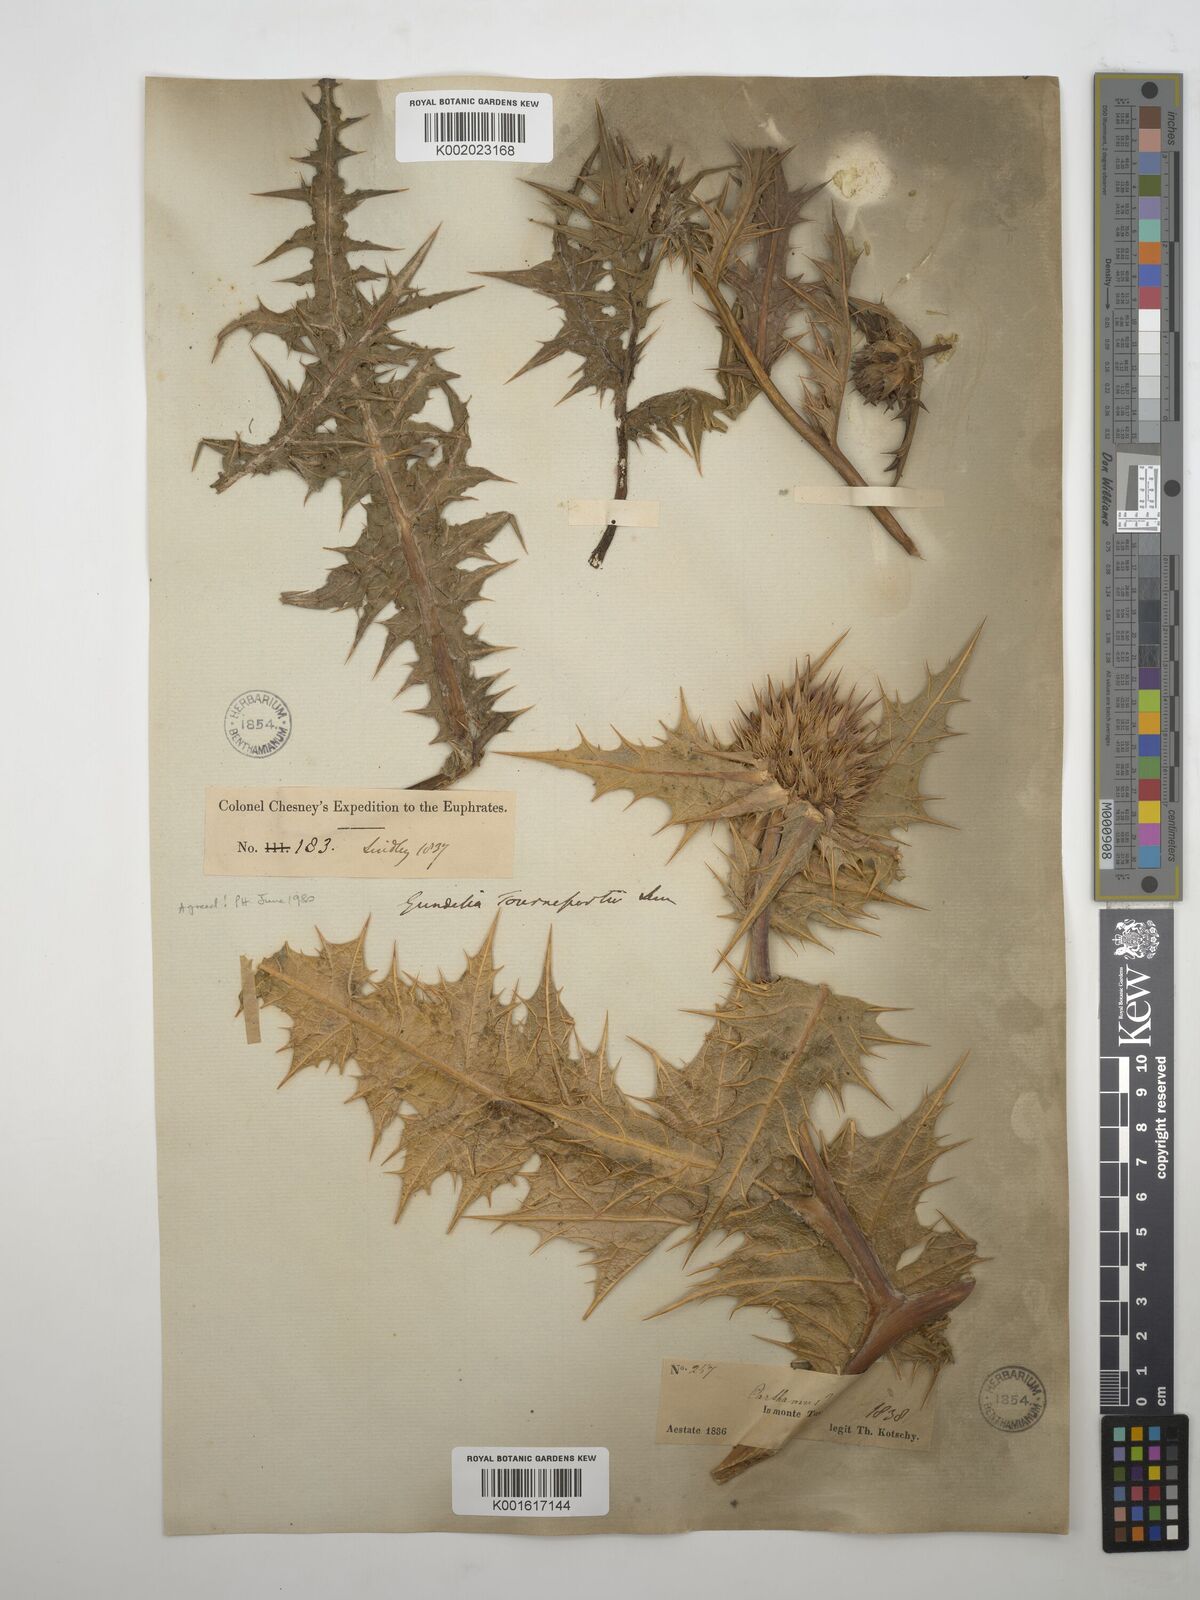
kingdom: Plantae
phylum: Tracheophyta
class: Magnoliopsida
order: Asterales
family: Asteraceae
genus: Gundelia
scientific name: Gundelia tournefortii
